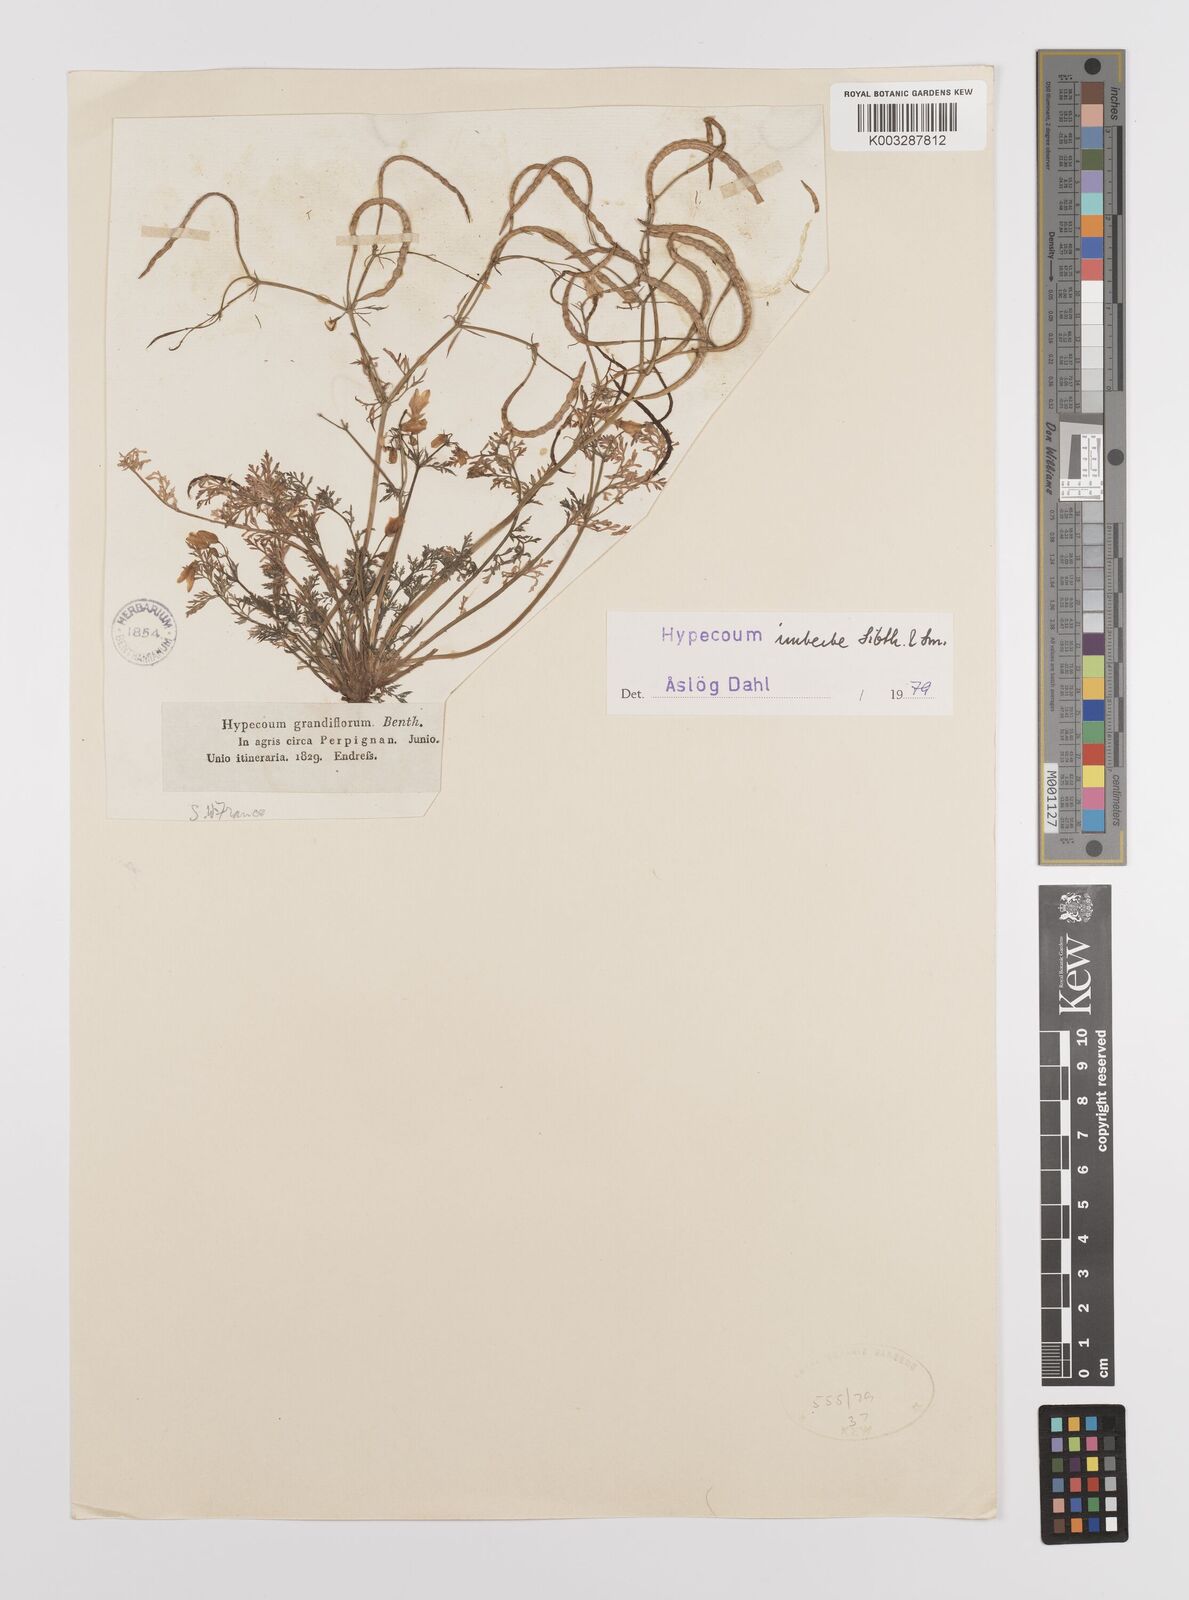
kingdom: Plantae
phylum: Tracheophyta
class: Magnoliopsida
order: Ranunculales
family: Papaveraceae
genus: Hypecoum
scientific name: Hypecoum imberbe
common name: Sicklefruit hypecoum
